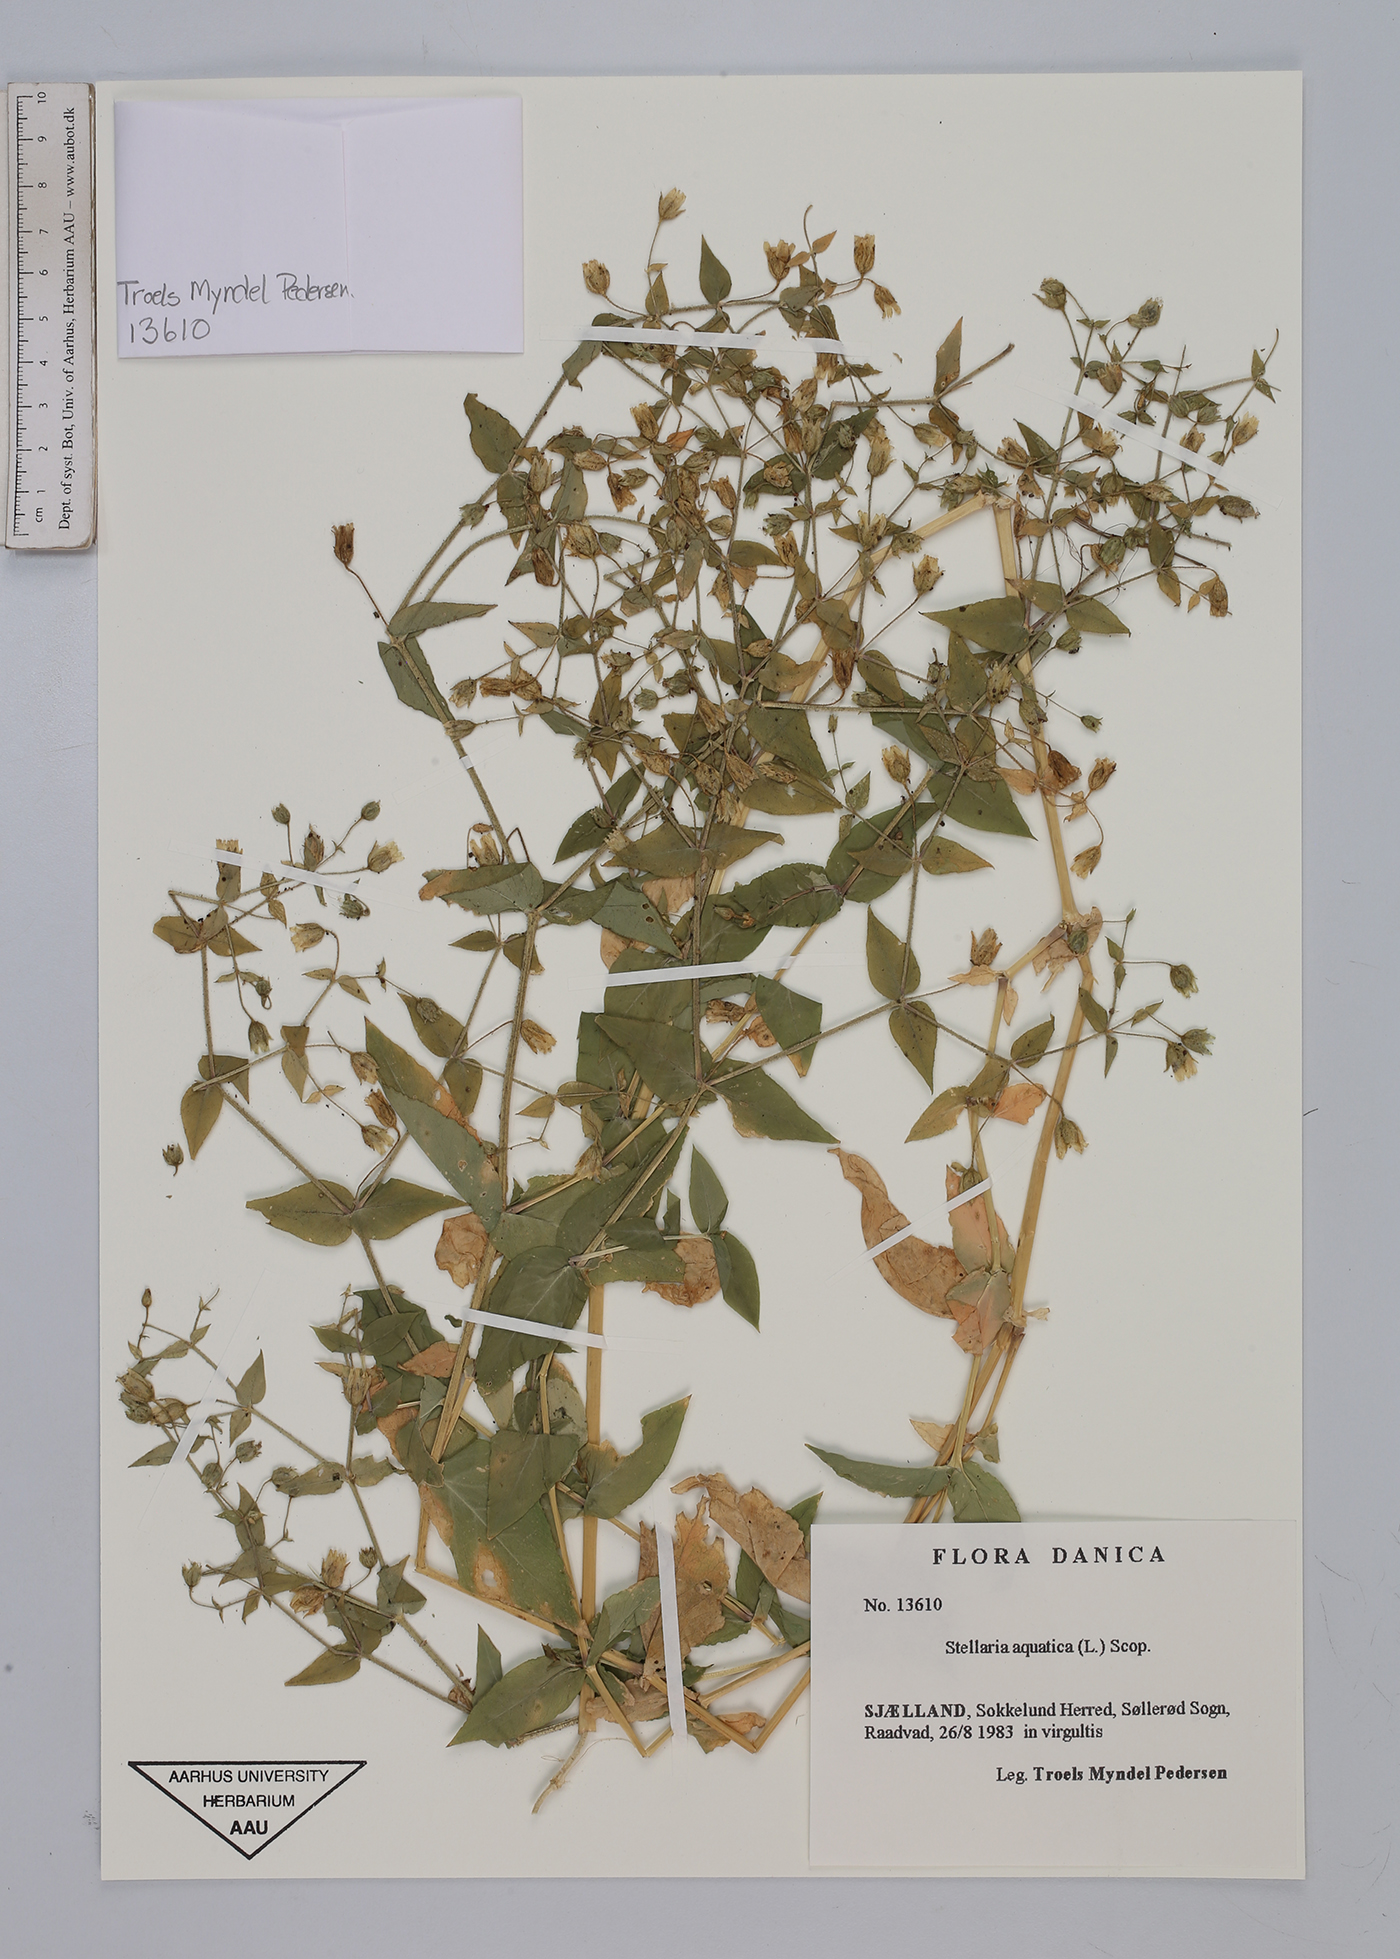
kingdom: Plantae
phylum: Tracheophyta
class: Magnoliopsida
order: Caryophyllales
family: Caryophyllaceae
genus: Stellaria
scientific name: Stellaria aquatica
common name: Water chickweed
